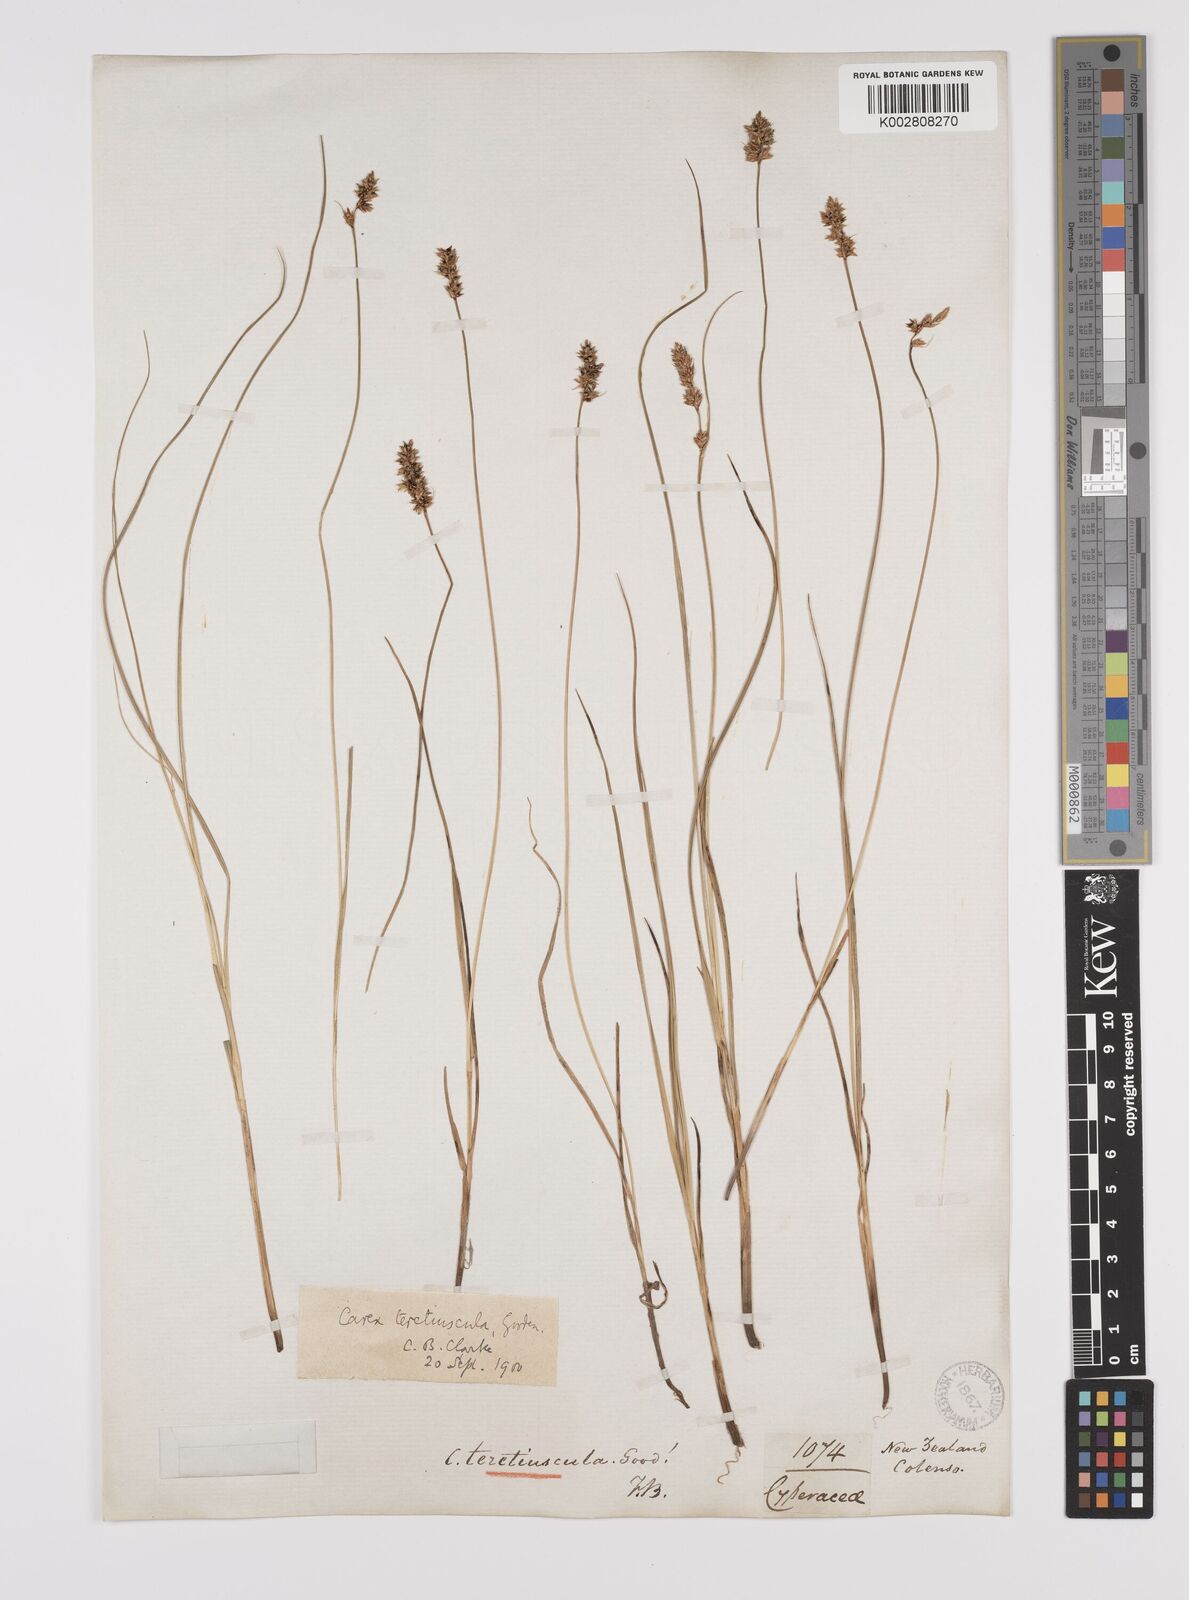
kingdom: Plantae
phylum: Tracheophyta
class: Liliopsida
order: Poales
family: Cyperaceae
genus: Carex
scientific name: Carex diandra
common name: Lesser tussock-sedge
